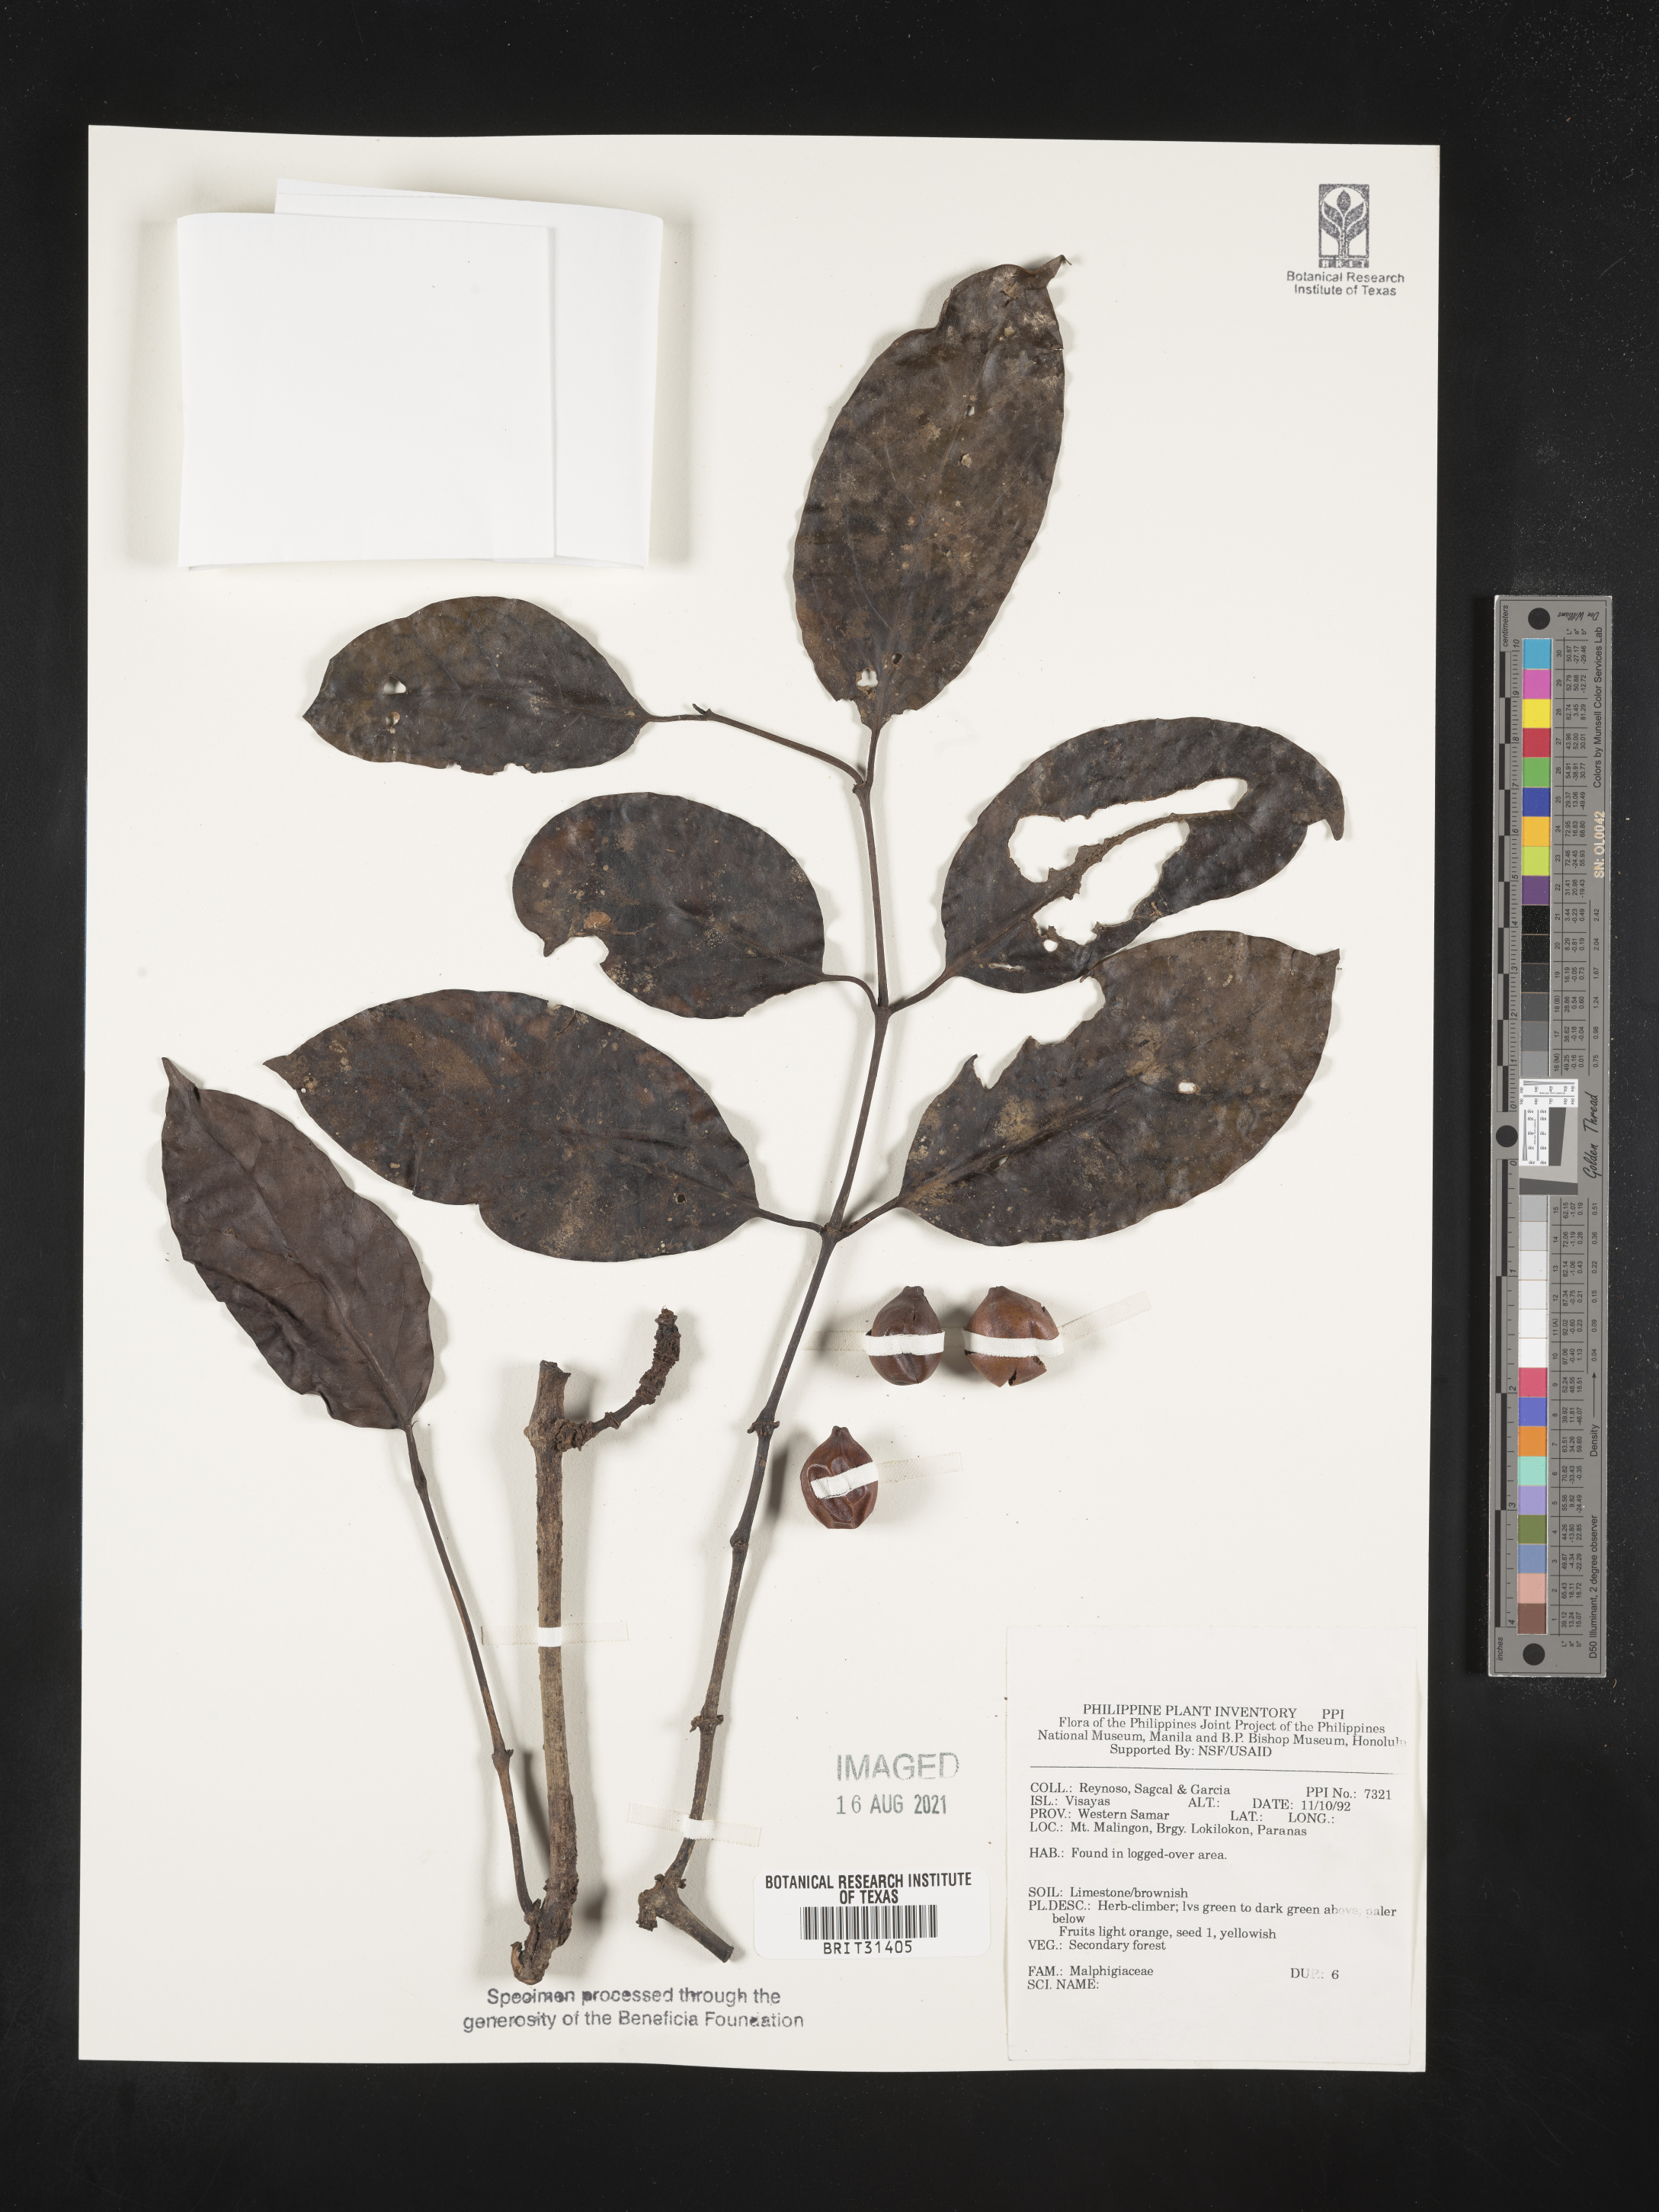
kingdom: Plantae
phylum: Tracheophyta
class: Magnoliopsida
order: Malpighiales
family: Malpighiaceae
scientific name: Malpighiaceae
